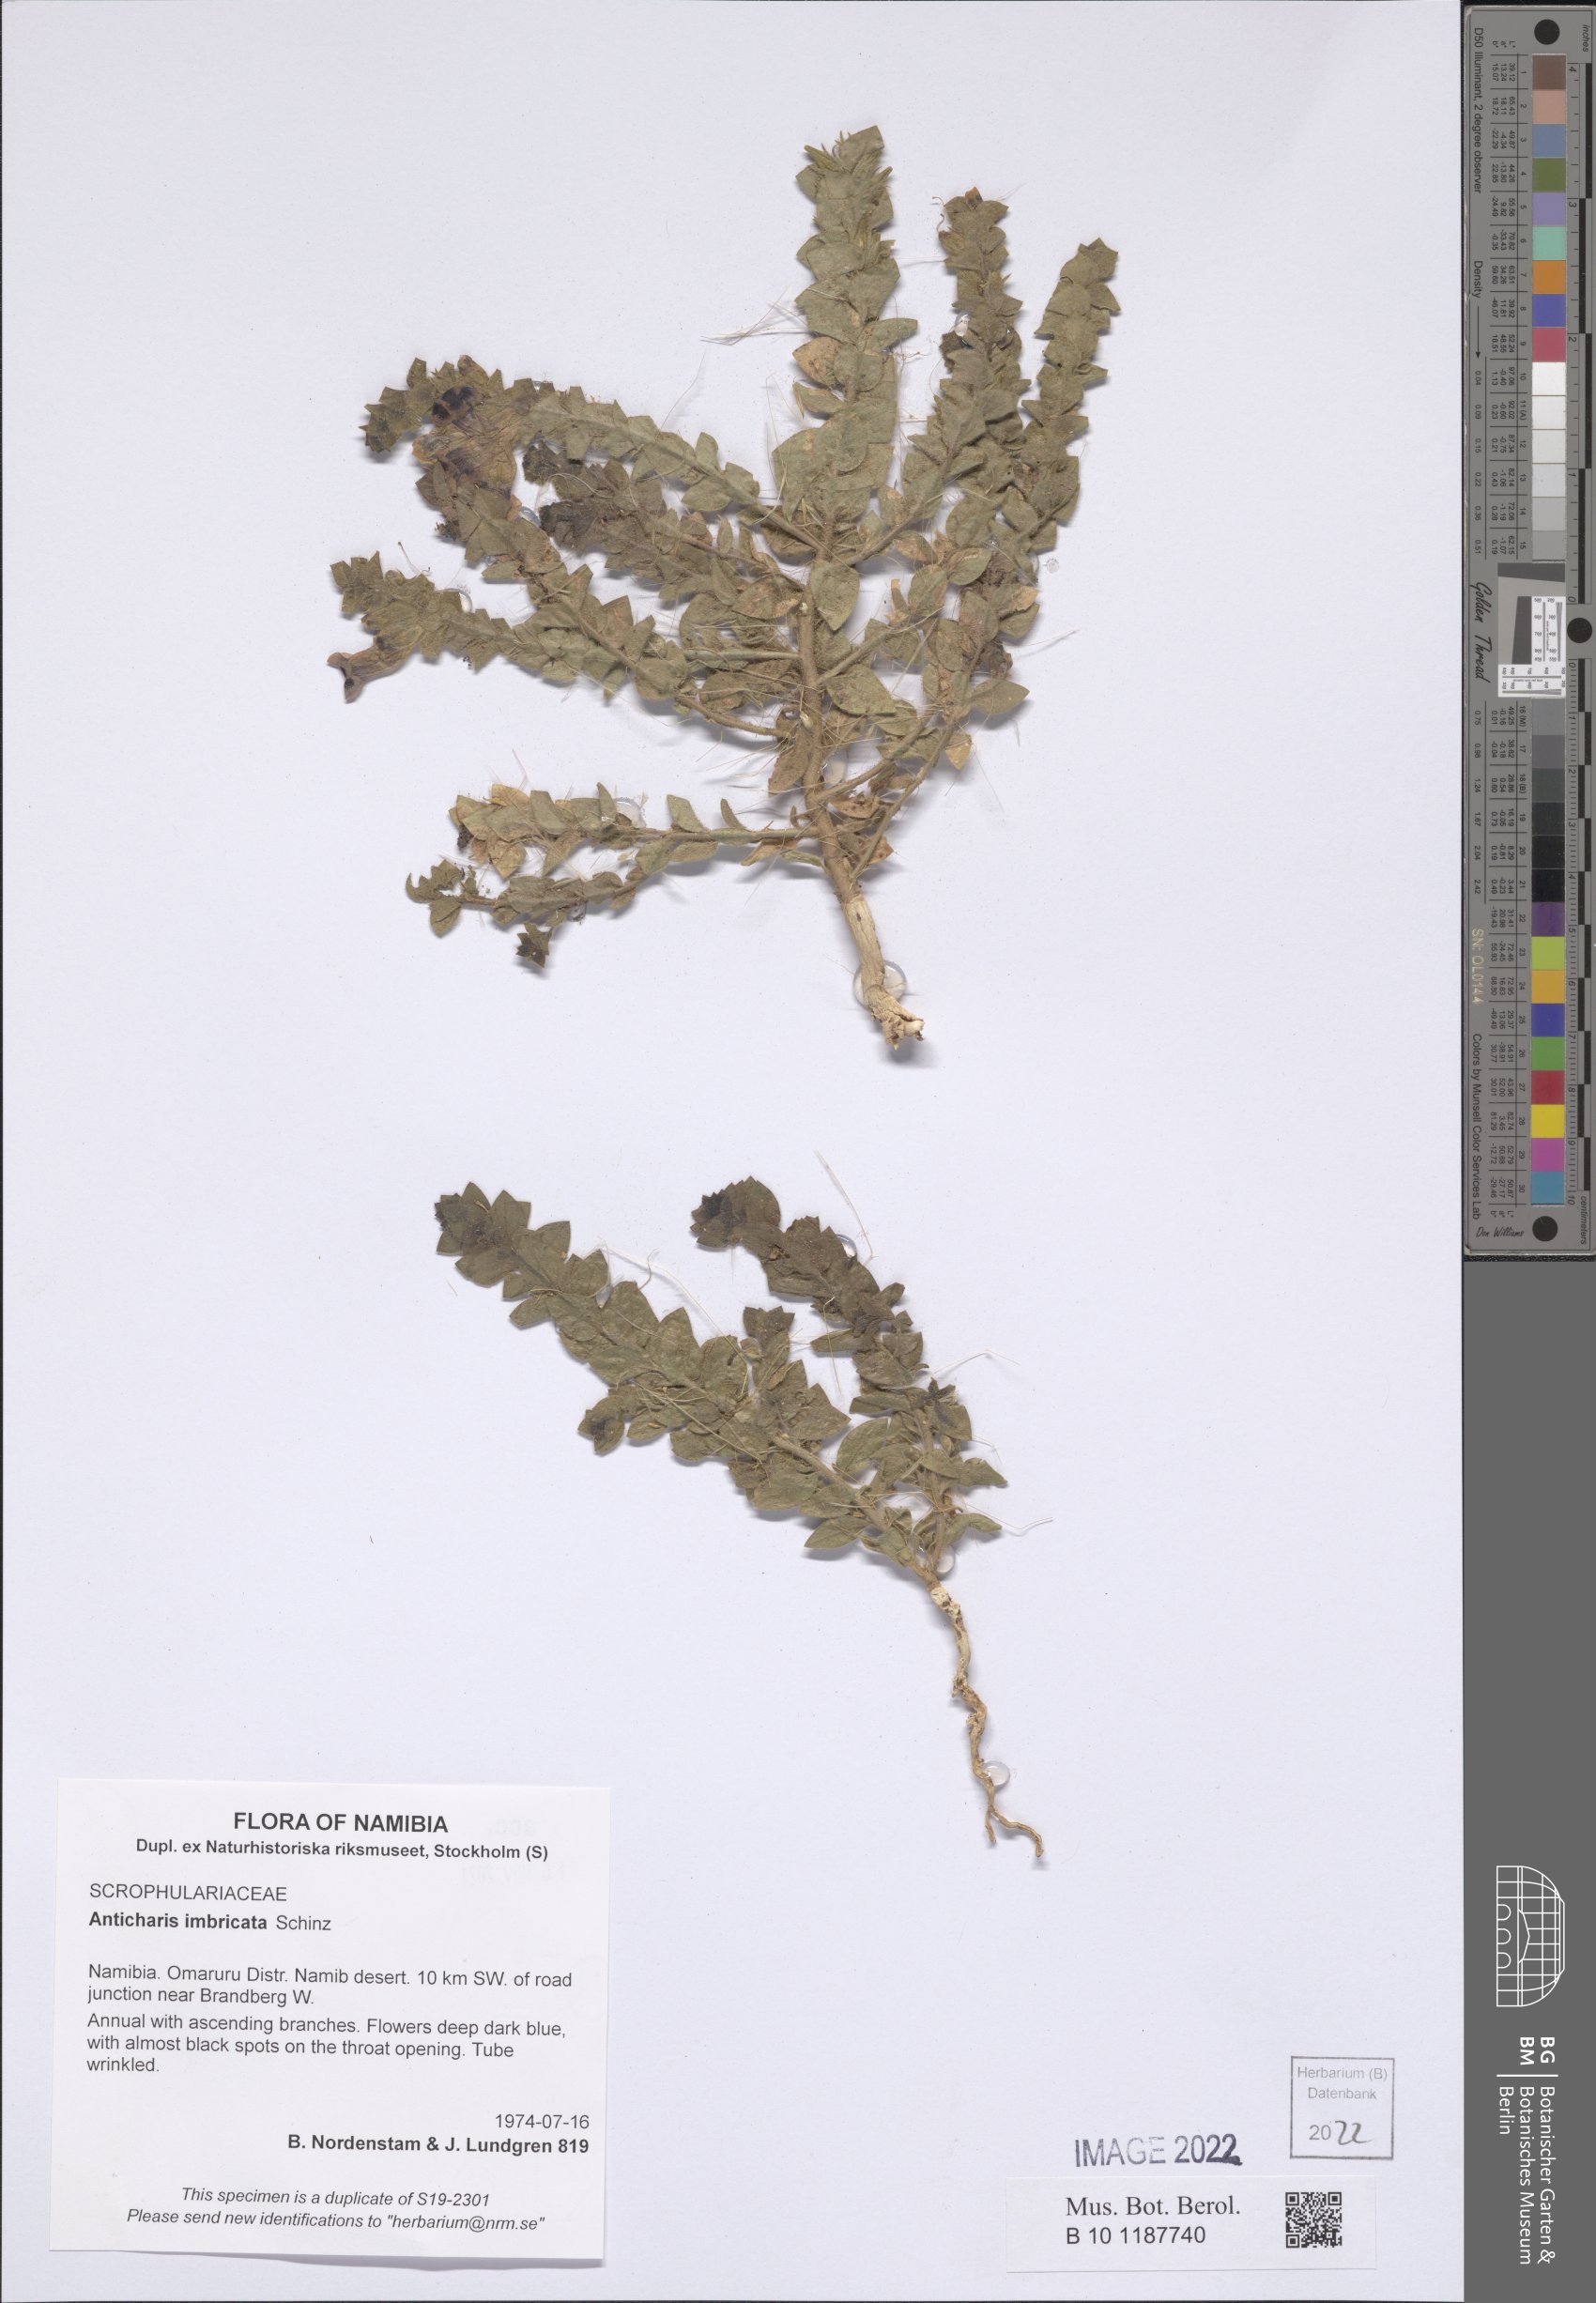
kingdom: Plantae
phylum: Tracheophyta
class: Magnoliopsida
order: Lamiales
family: Scrophulariaceae
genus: Anticharis
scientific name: Anticharis imbricata
